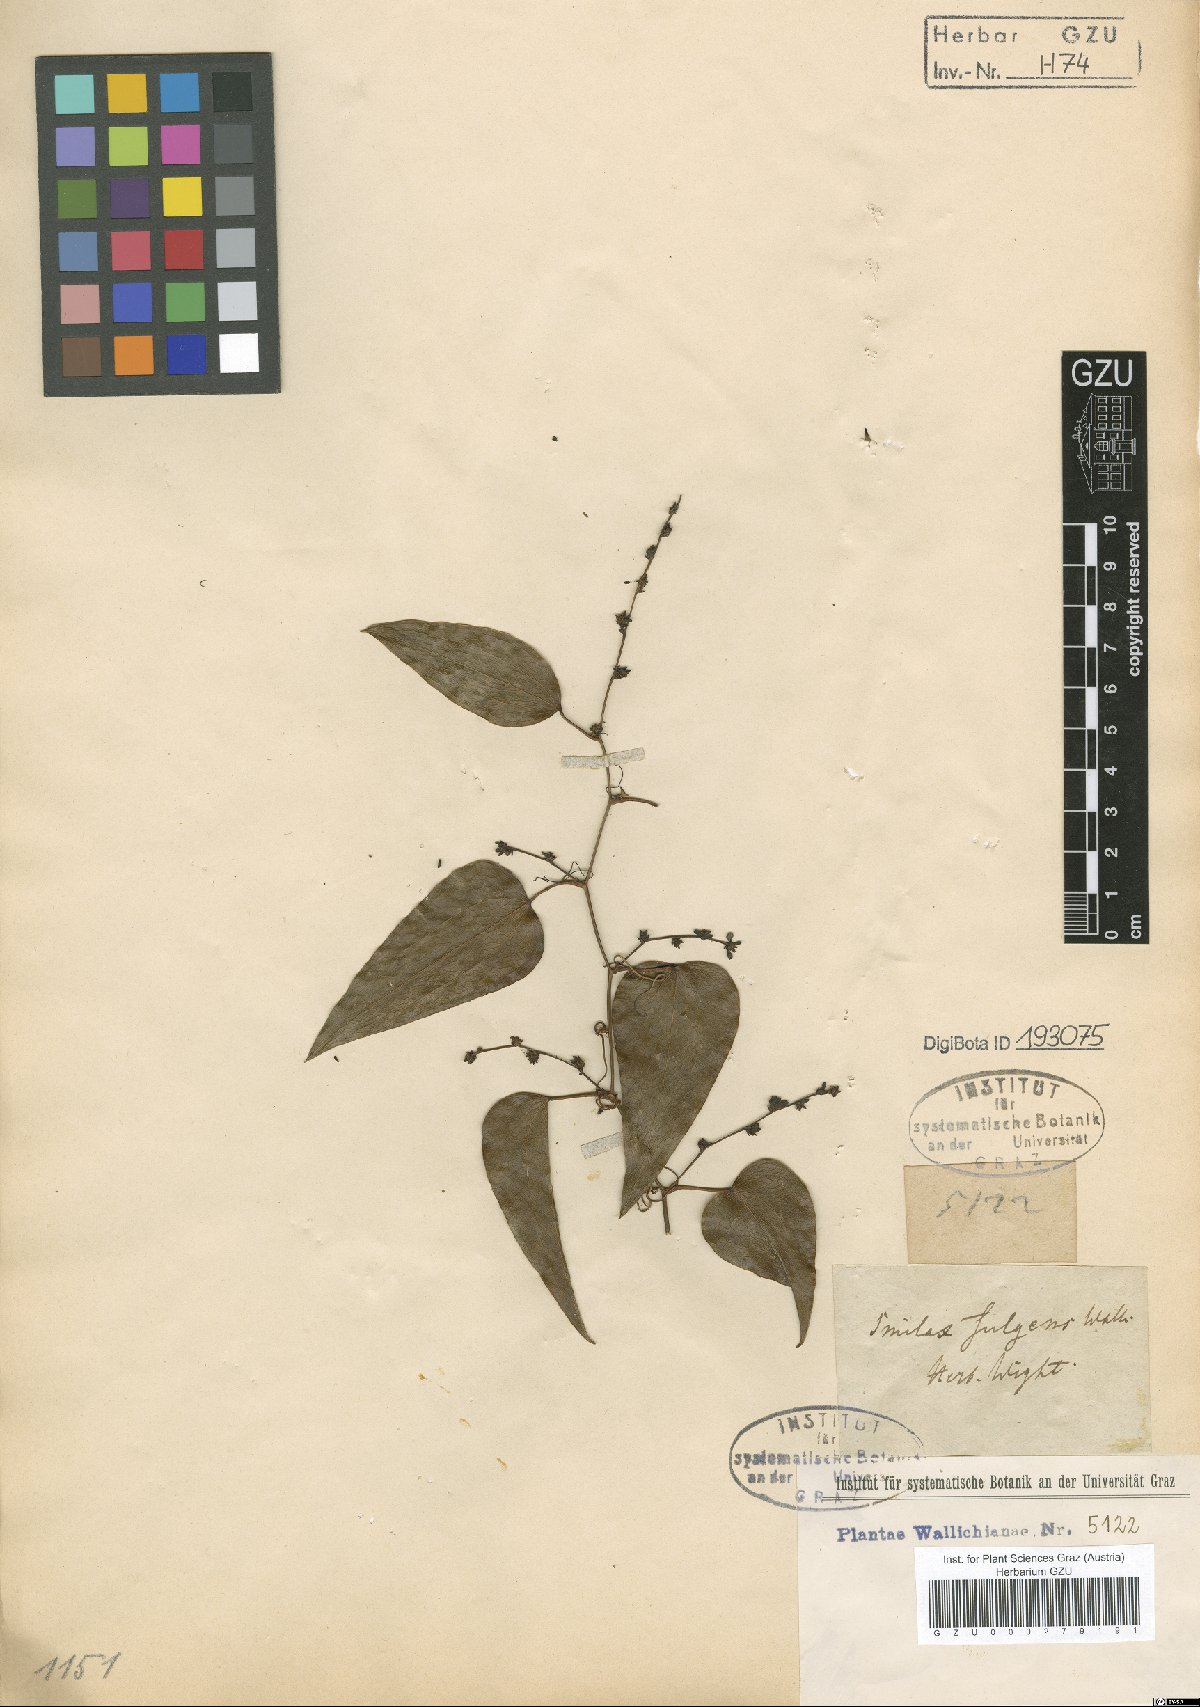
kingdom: Plantae
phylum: Tracheophyta
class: Liliopsida
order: Liliales
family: Smilacaceae
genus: Smilax
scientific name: Smilax fulgens
